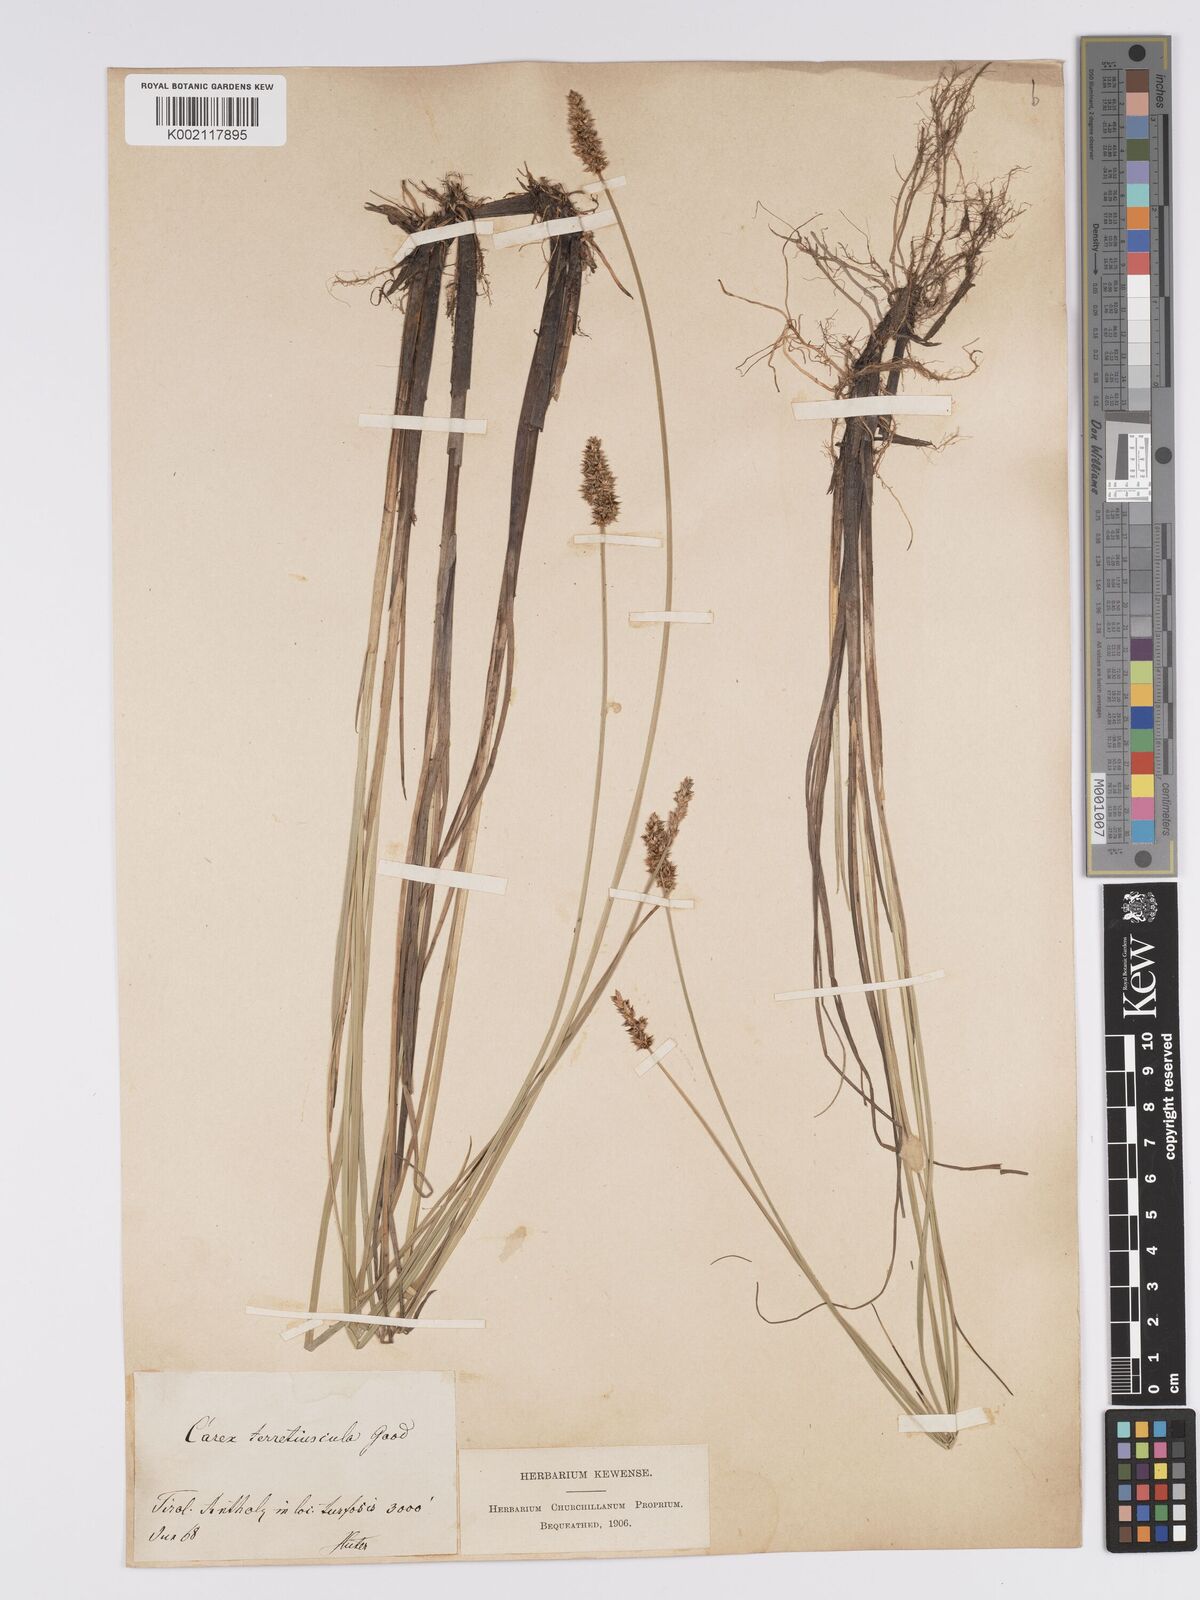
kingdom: Plantae
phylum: Tracheophyta
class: Liliopsida
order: Poales
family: Cyperaceae
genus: Carex
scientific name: Carex diandra
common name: Lesser tussock-sedge
